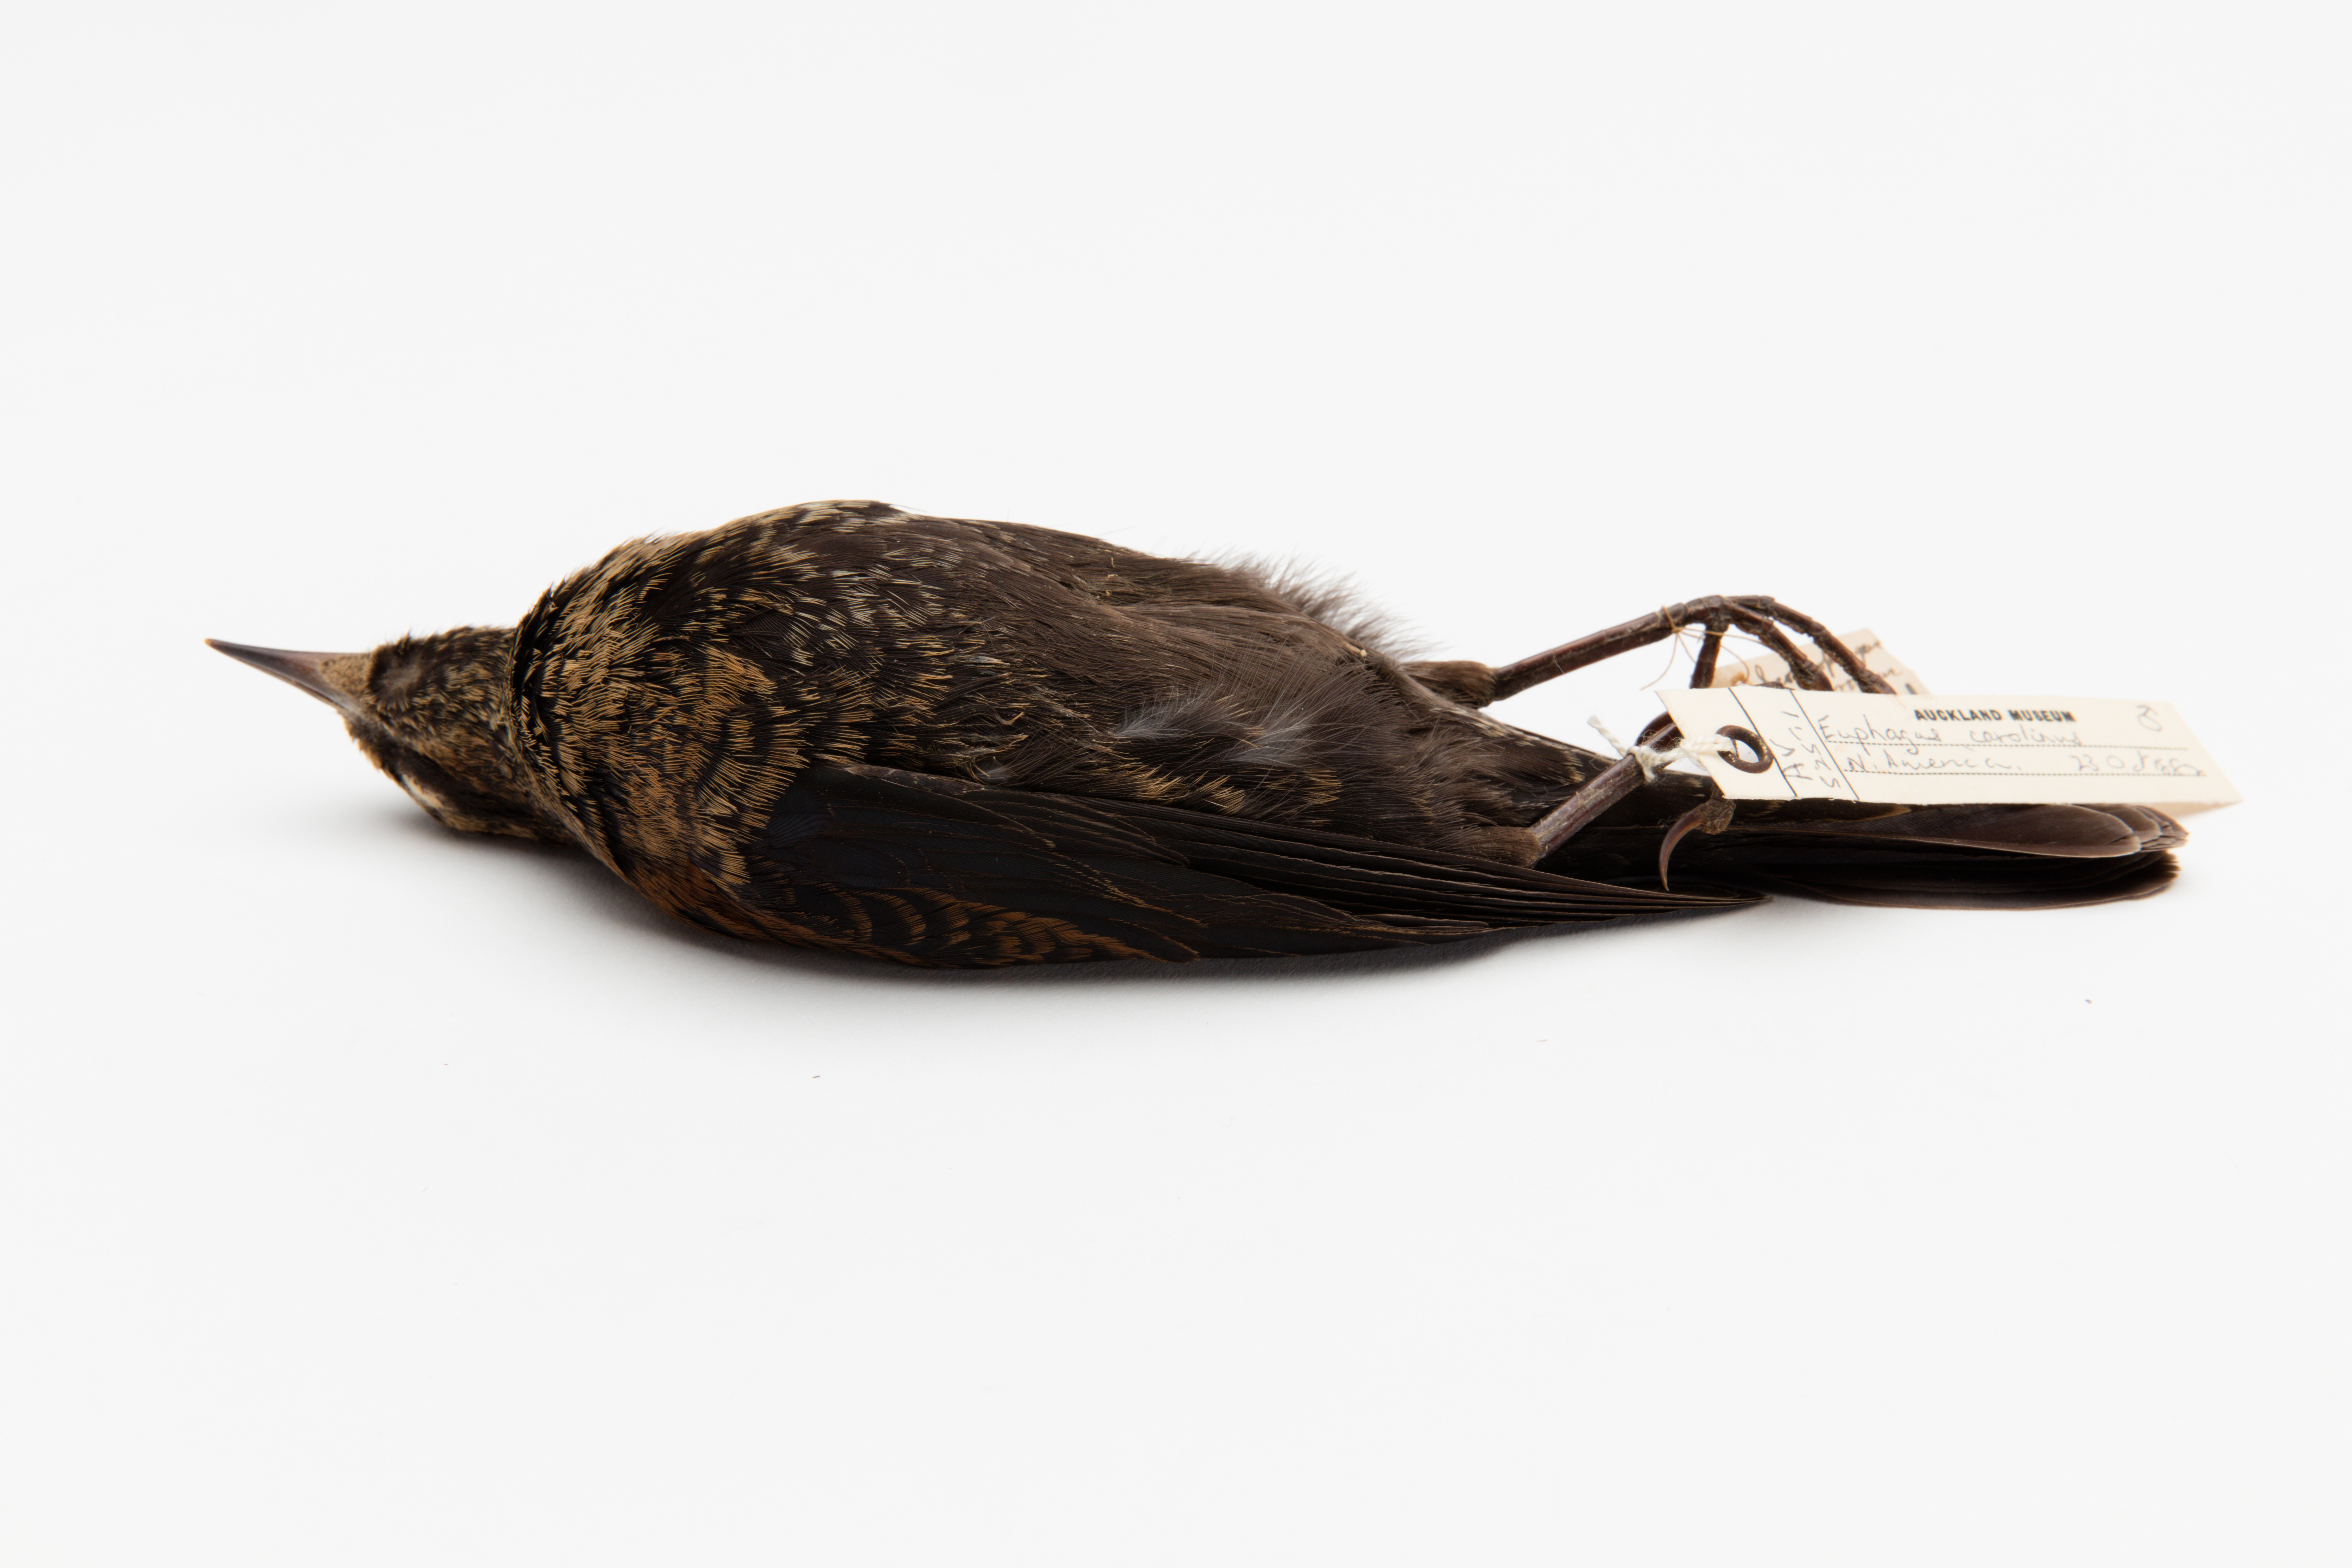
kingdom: Animalia
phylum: Chordata
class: Aves
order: Passeriformes
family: Icteridae
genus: Euphagus
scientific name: Euphagus carolinus
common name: Rusty blackbird
